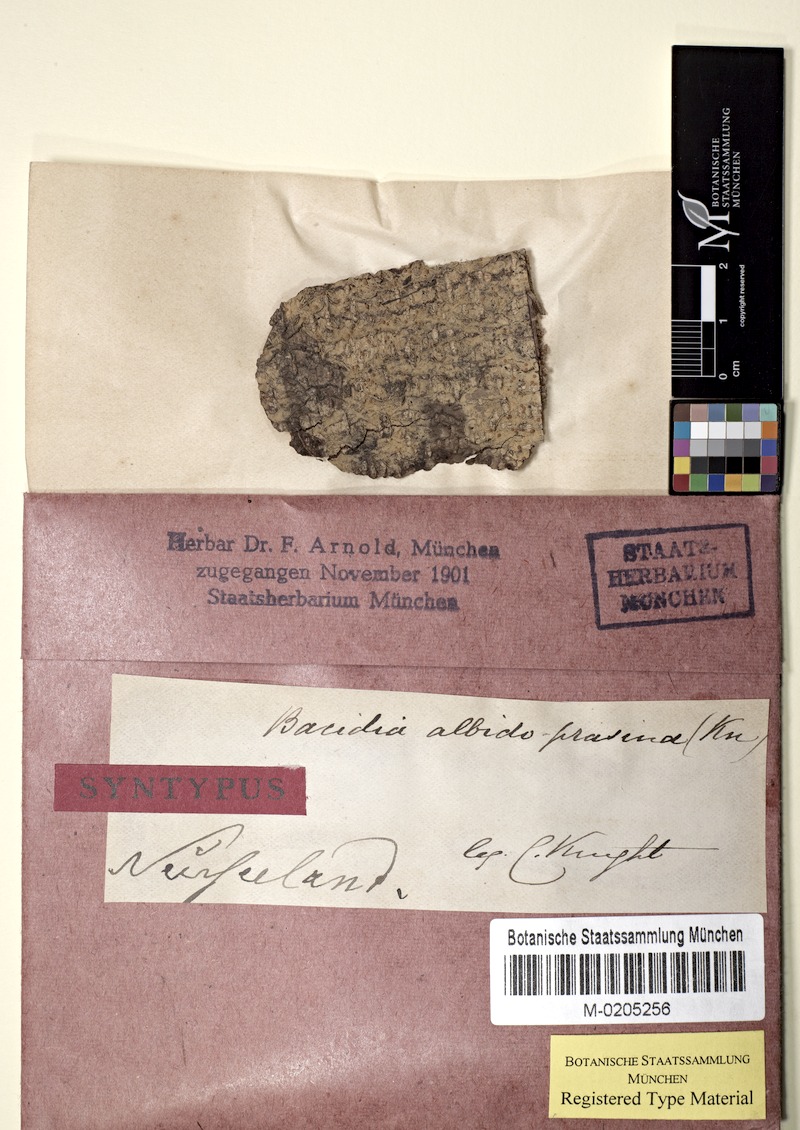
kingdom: Fungi
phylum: Ascomycota
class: Lecanoromycetes
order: Lecanorales
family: Ramalinaceae
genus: Bacidia
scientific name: Bacidia
